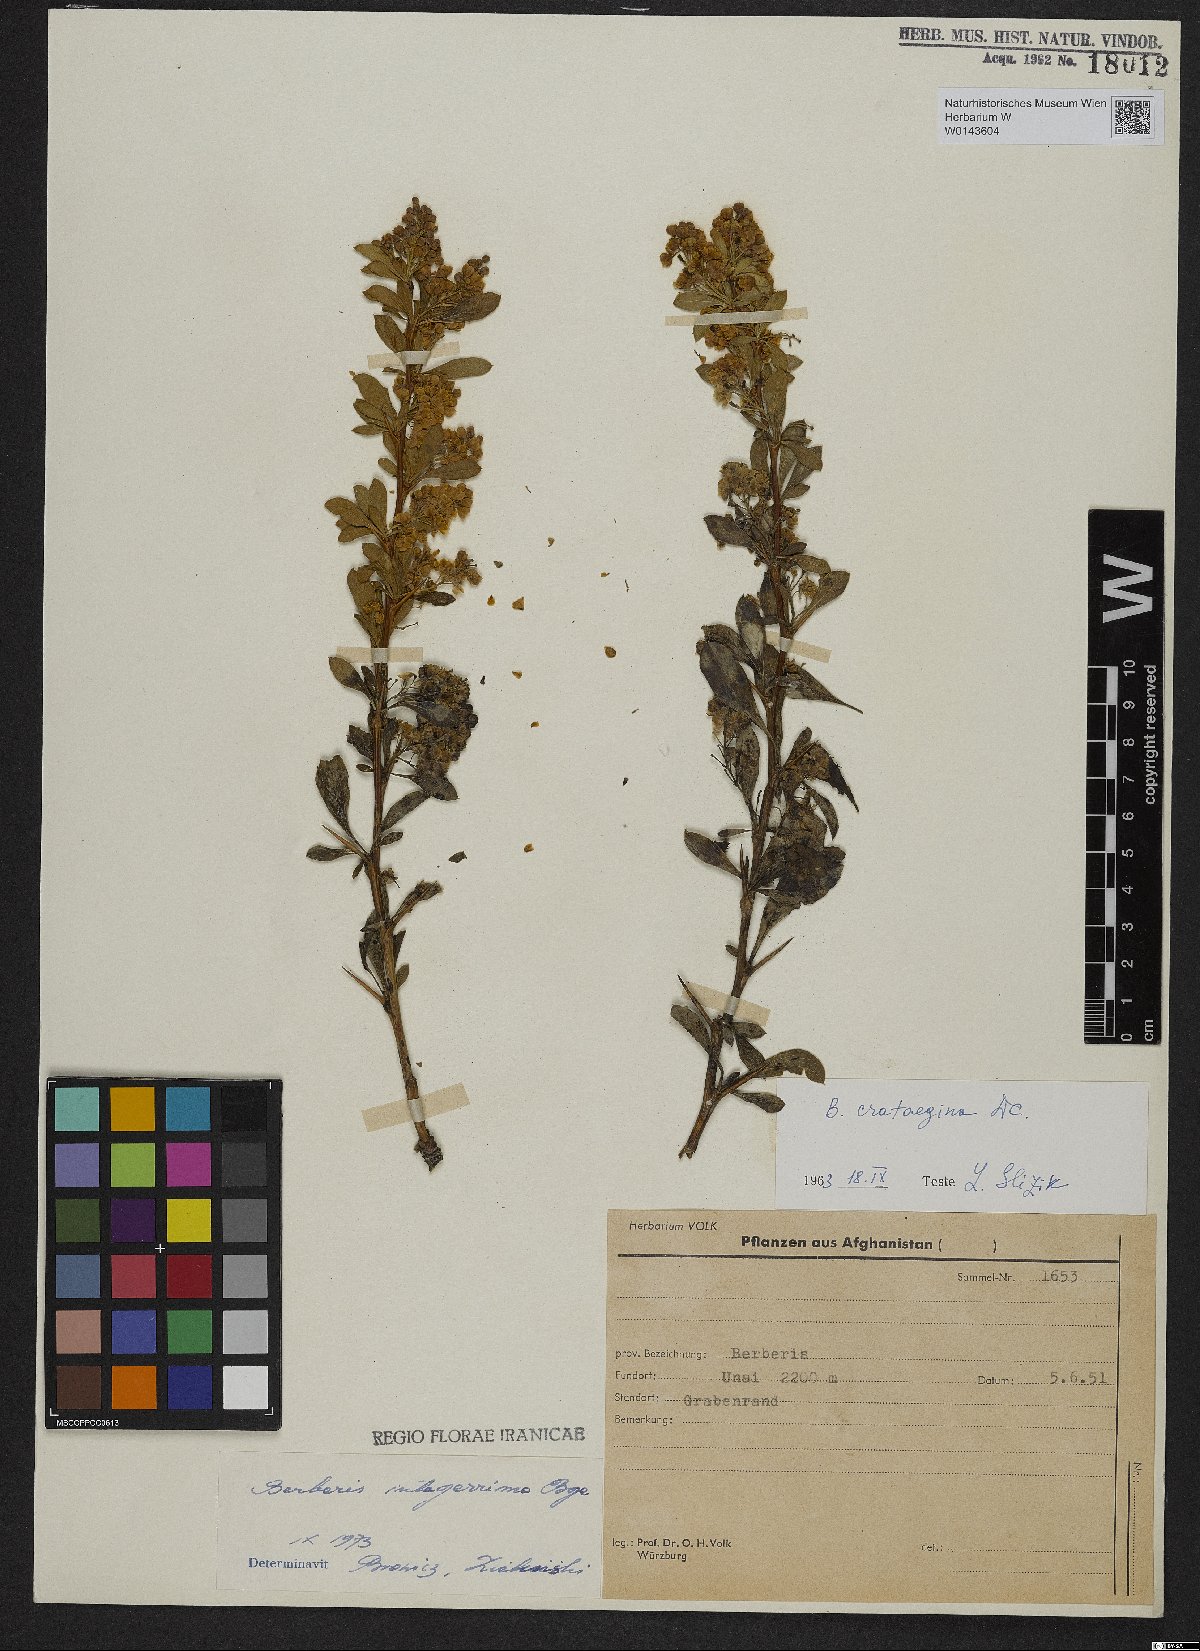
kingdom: Plantae
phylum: Tracheophyta
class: Magnoliopsida
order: Ranunculales
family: Berberidaceae
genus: Berberis
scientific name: Berberis integerrima
